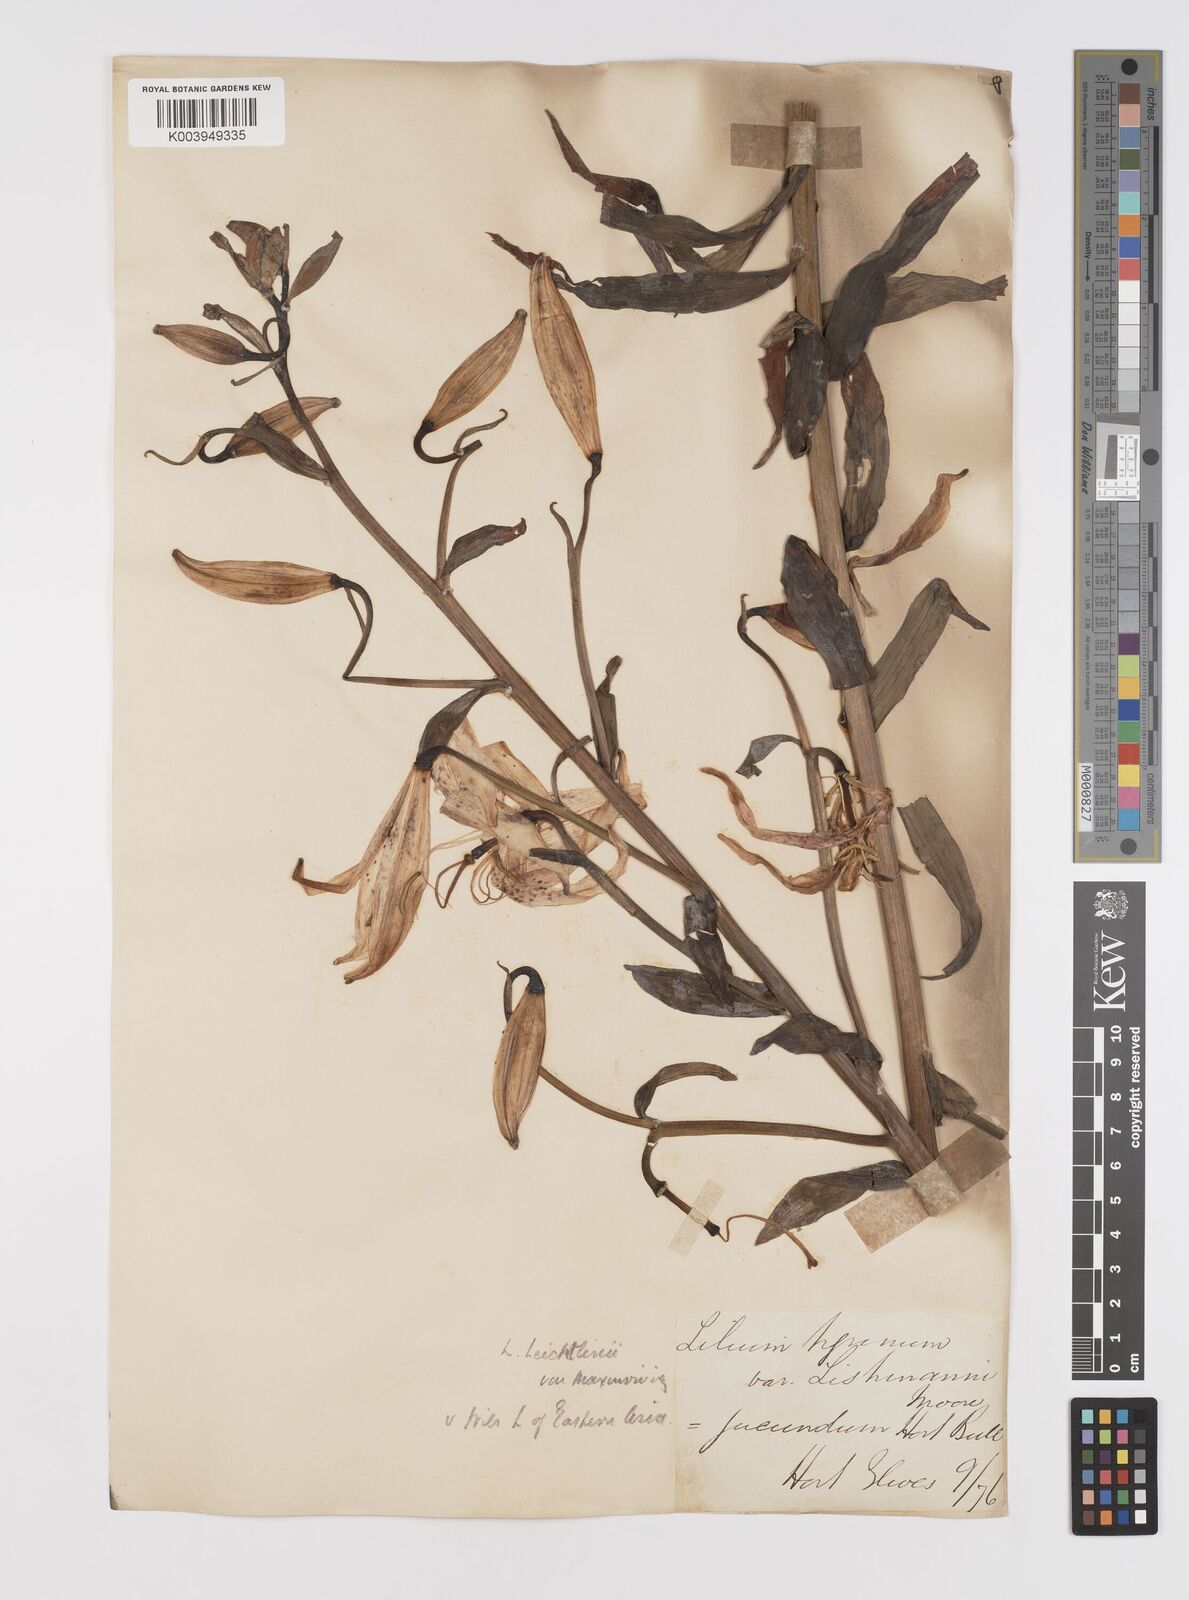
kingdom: Plantae
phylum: Tracheophyta
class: Liliopsida
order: Liliales
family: Liliaceae
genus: Lilium
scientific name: Lilium leichtlinii
